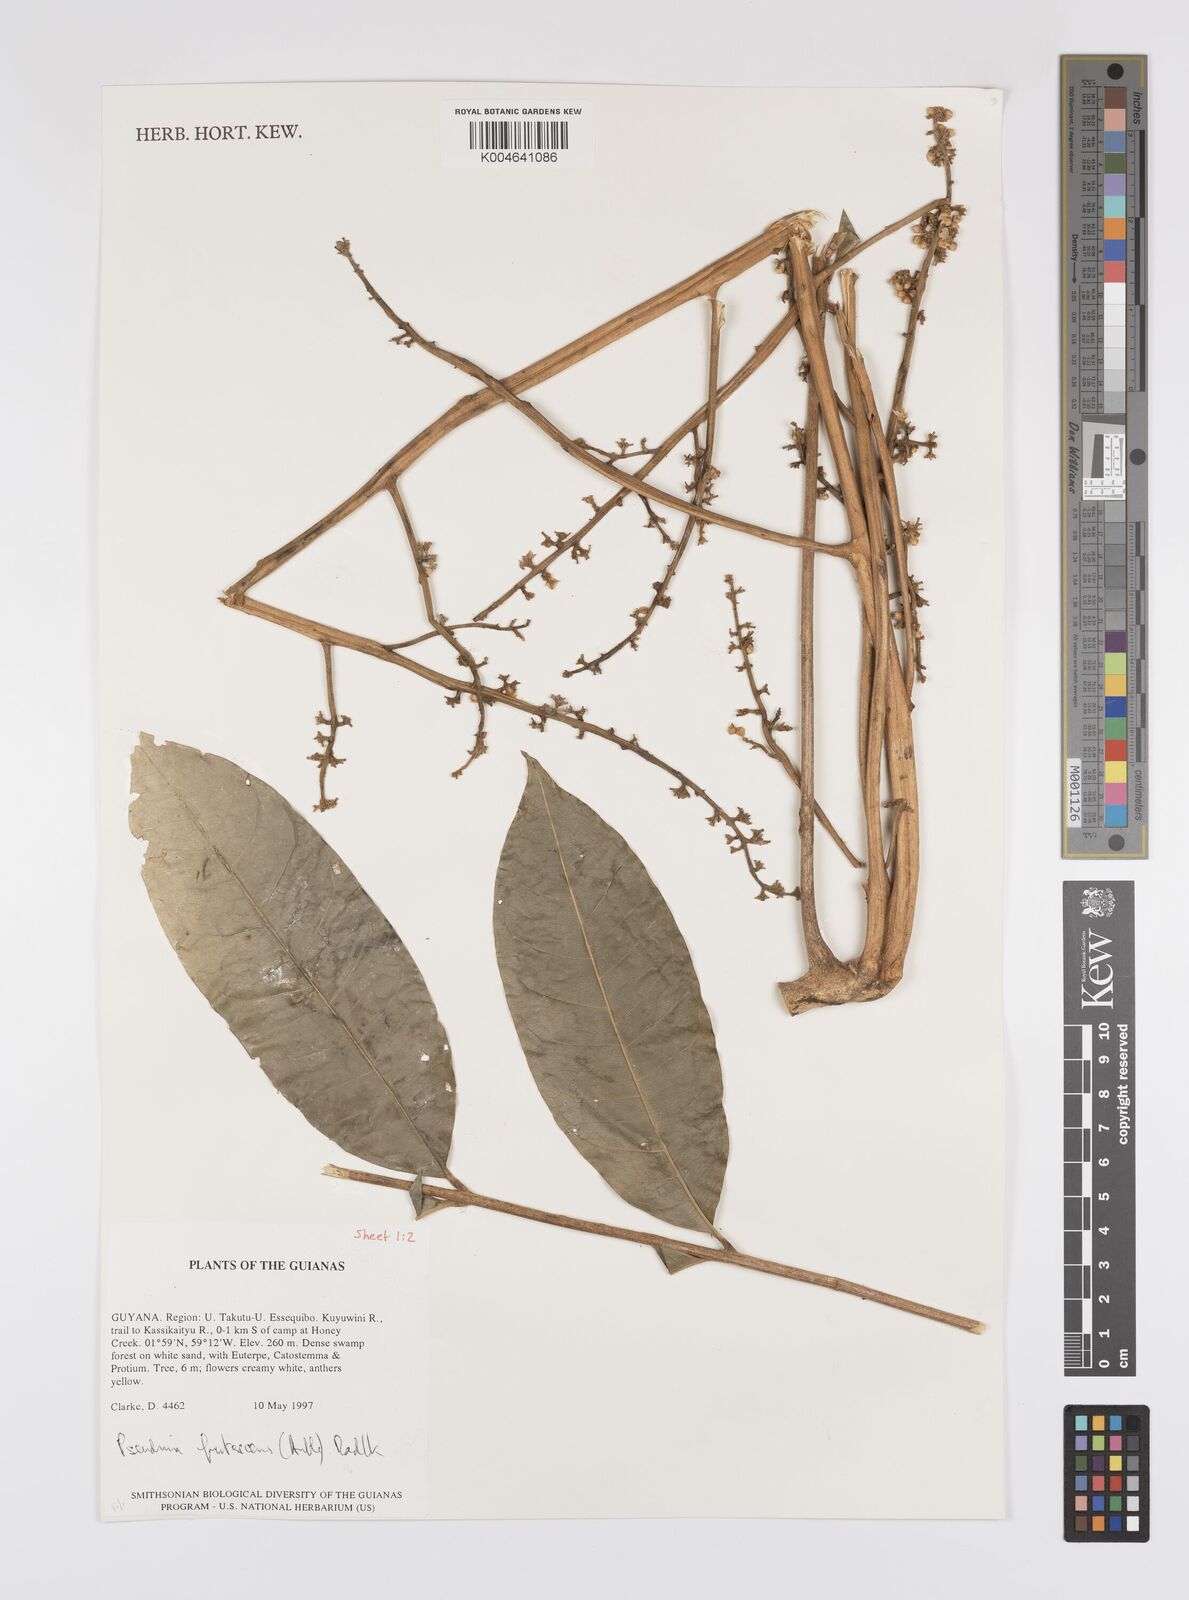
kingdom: Plantae
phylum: Tracheophyta
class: Magnoliopsida
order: Sapindales
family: Sapindaceae
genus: Pseudima
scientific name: Pseudima frutescens
